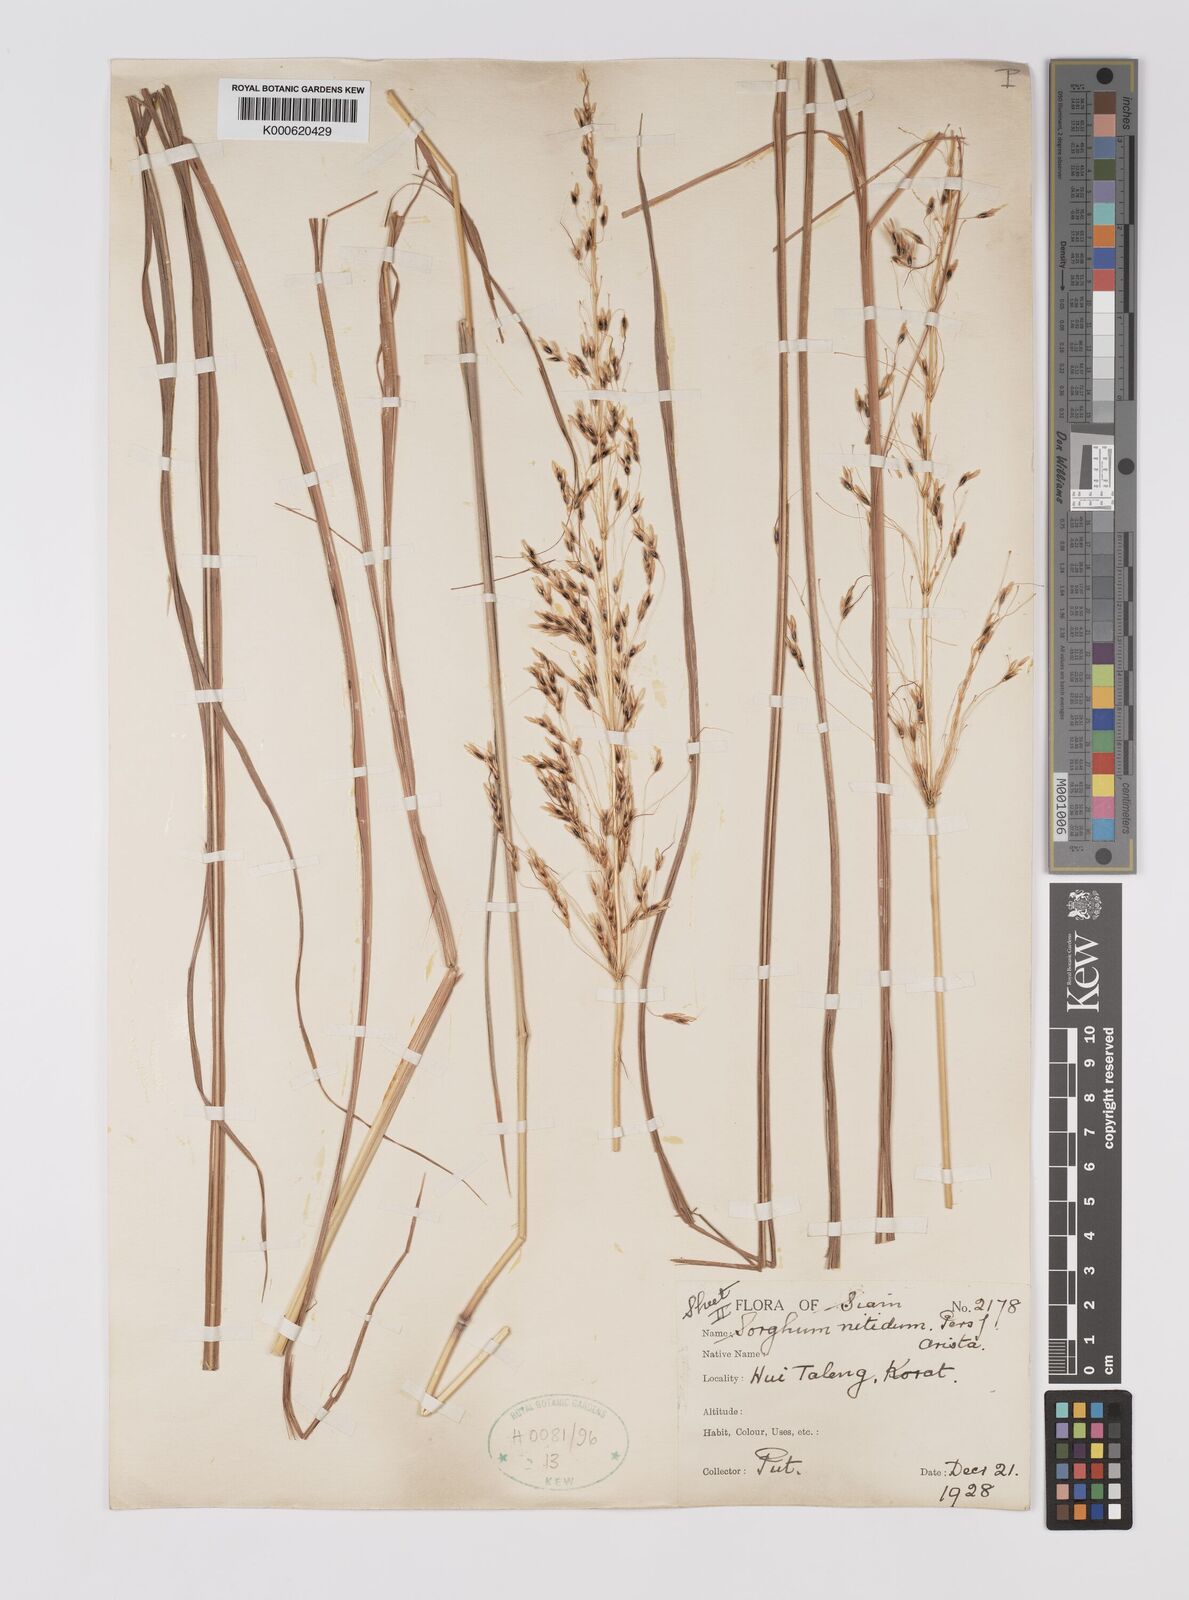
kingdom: Plantae
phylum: Tracheophyta
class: Liliopsida
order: Poales
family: Poaceae
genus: Sorghum
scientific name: Sorghum nitidum
